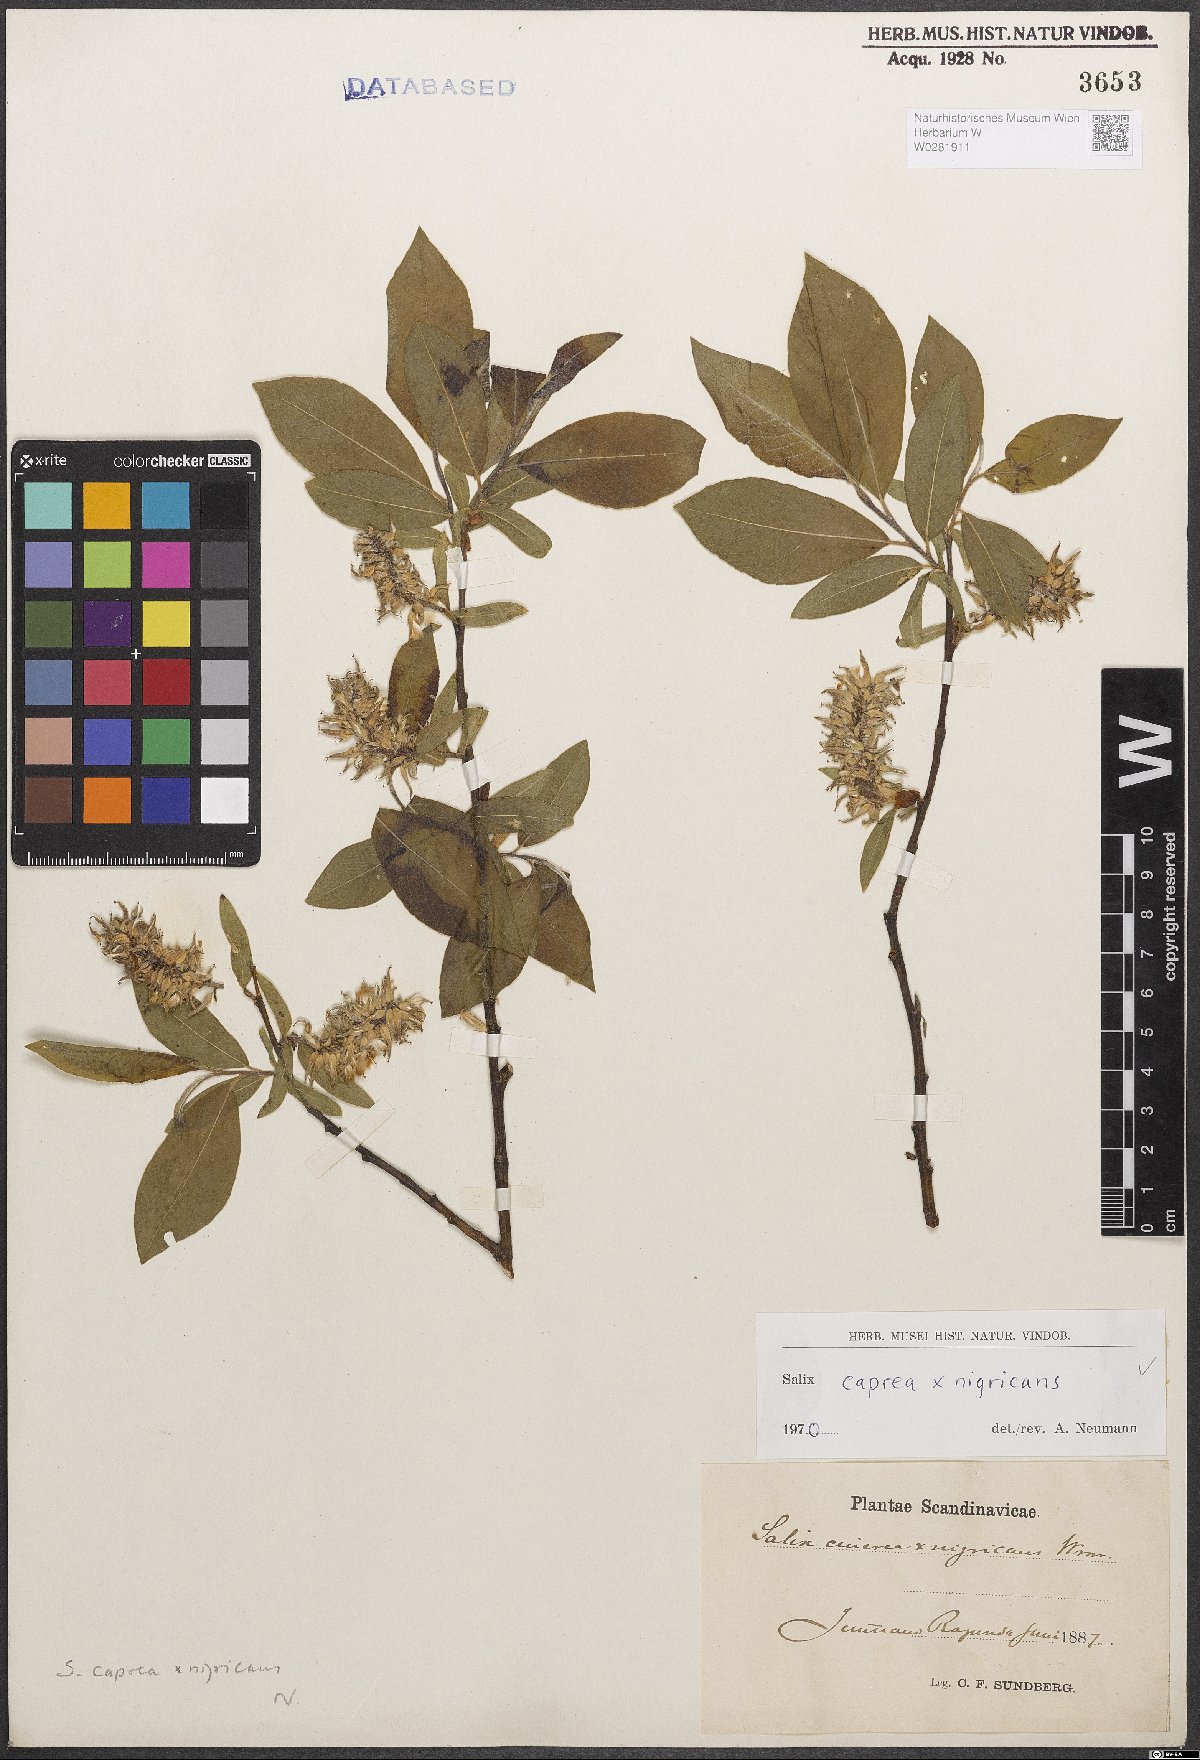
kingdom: Plantae
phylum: Tracheophyta
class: Magnoliopsida
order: Malpighiales
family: Salicaceae
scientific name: Salicaceae
